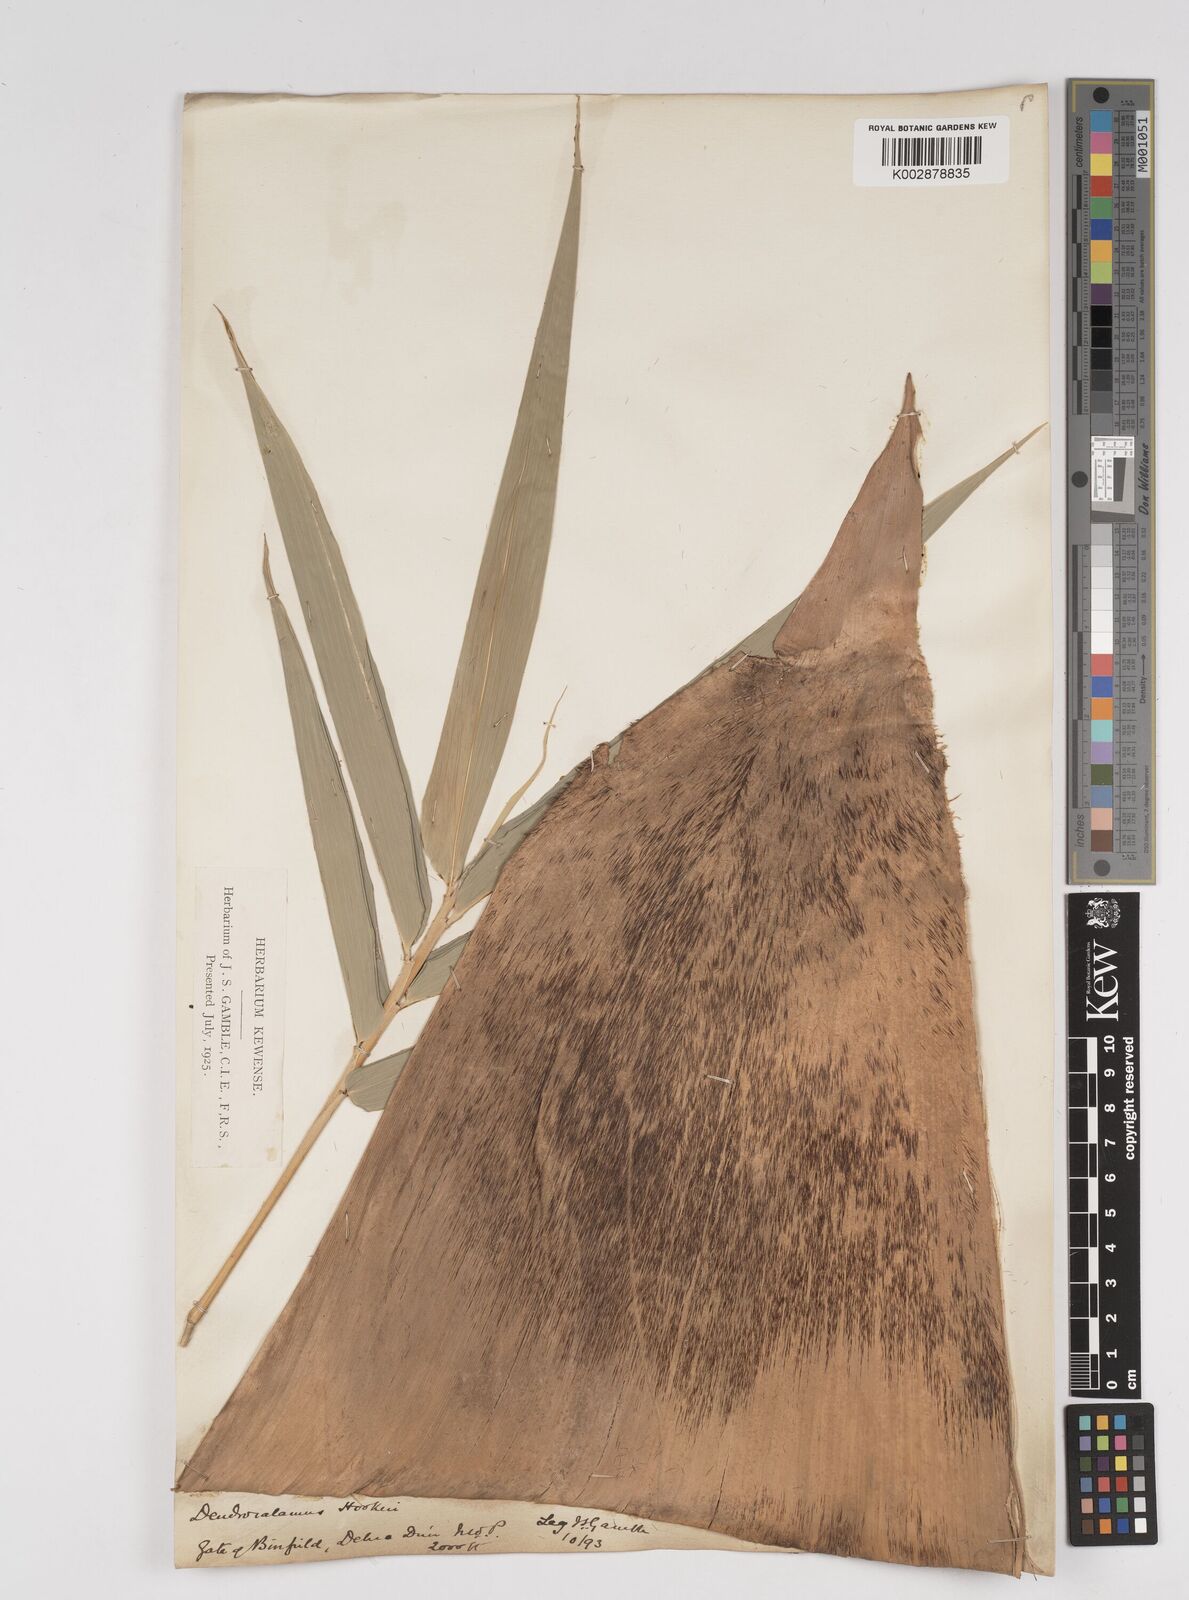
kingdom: Plantae
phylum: Tracheophyta
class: Liliopsida
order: Poales
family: Poaceae
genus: Dendrocalamus
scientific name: Dendrocalamus hookeri
